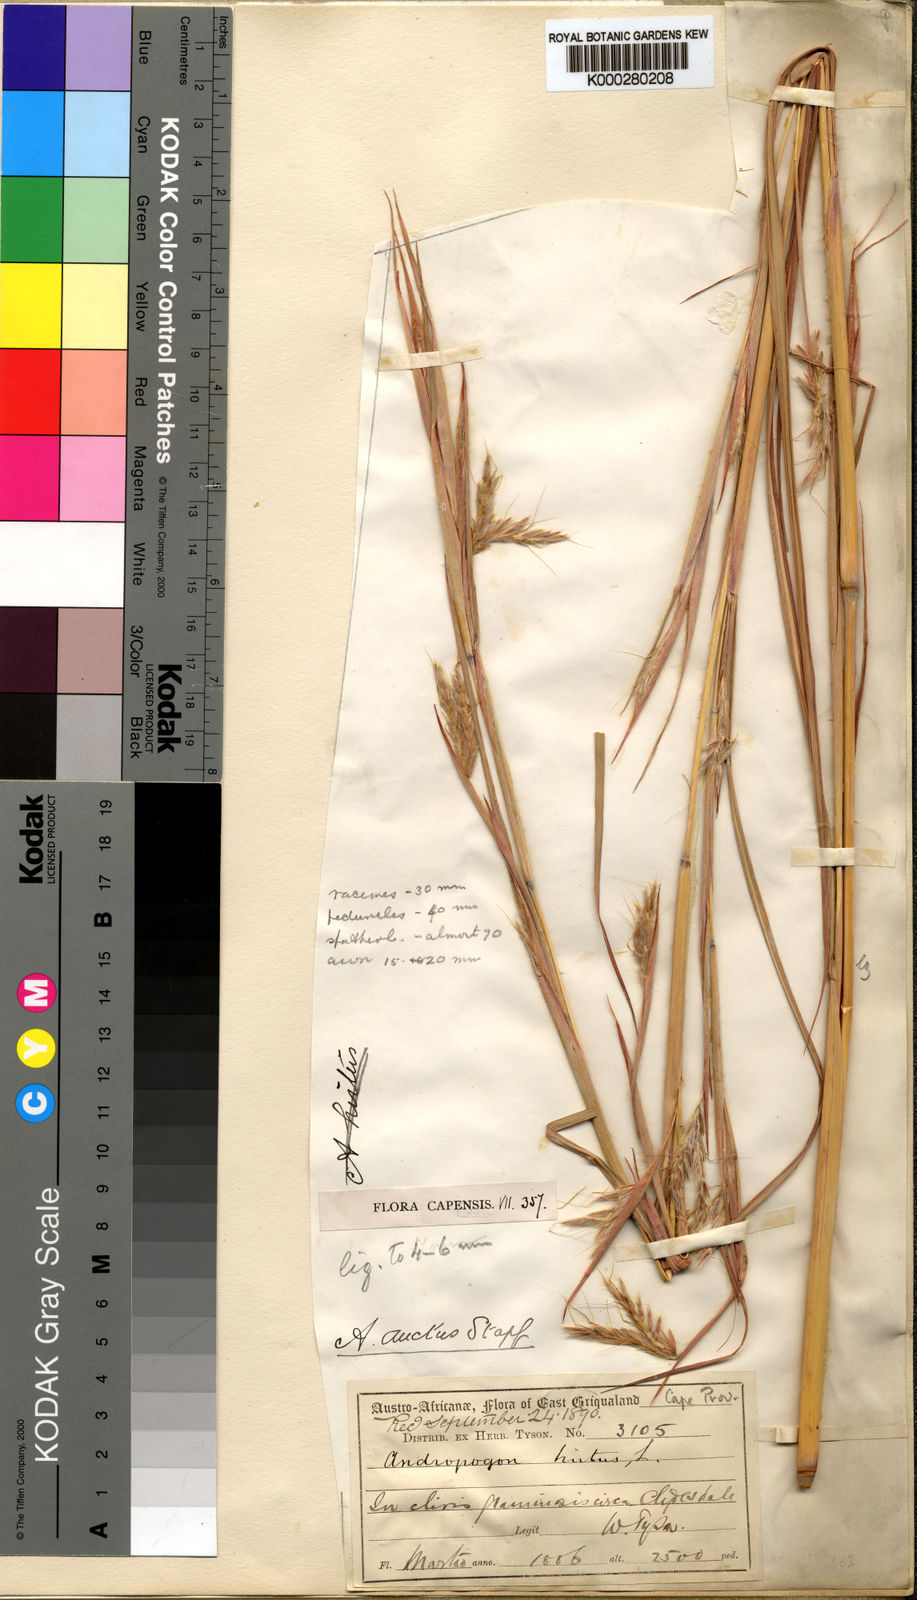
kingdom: Plantae
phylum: Tracheophyta
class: Liliopsida
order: Poales
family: Poaceae
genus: Hyparrhenia
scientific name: Hyparrhenia dregeana
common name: Silky thatching grass
